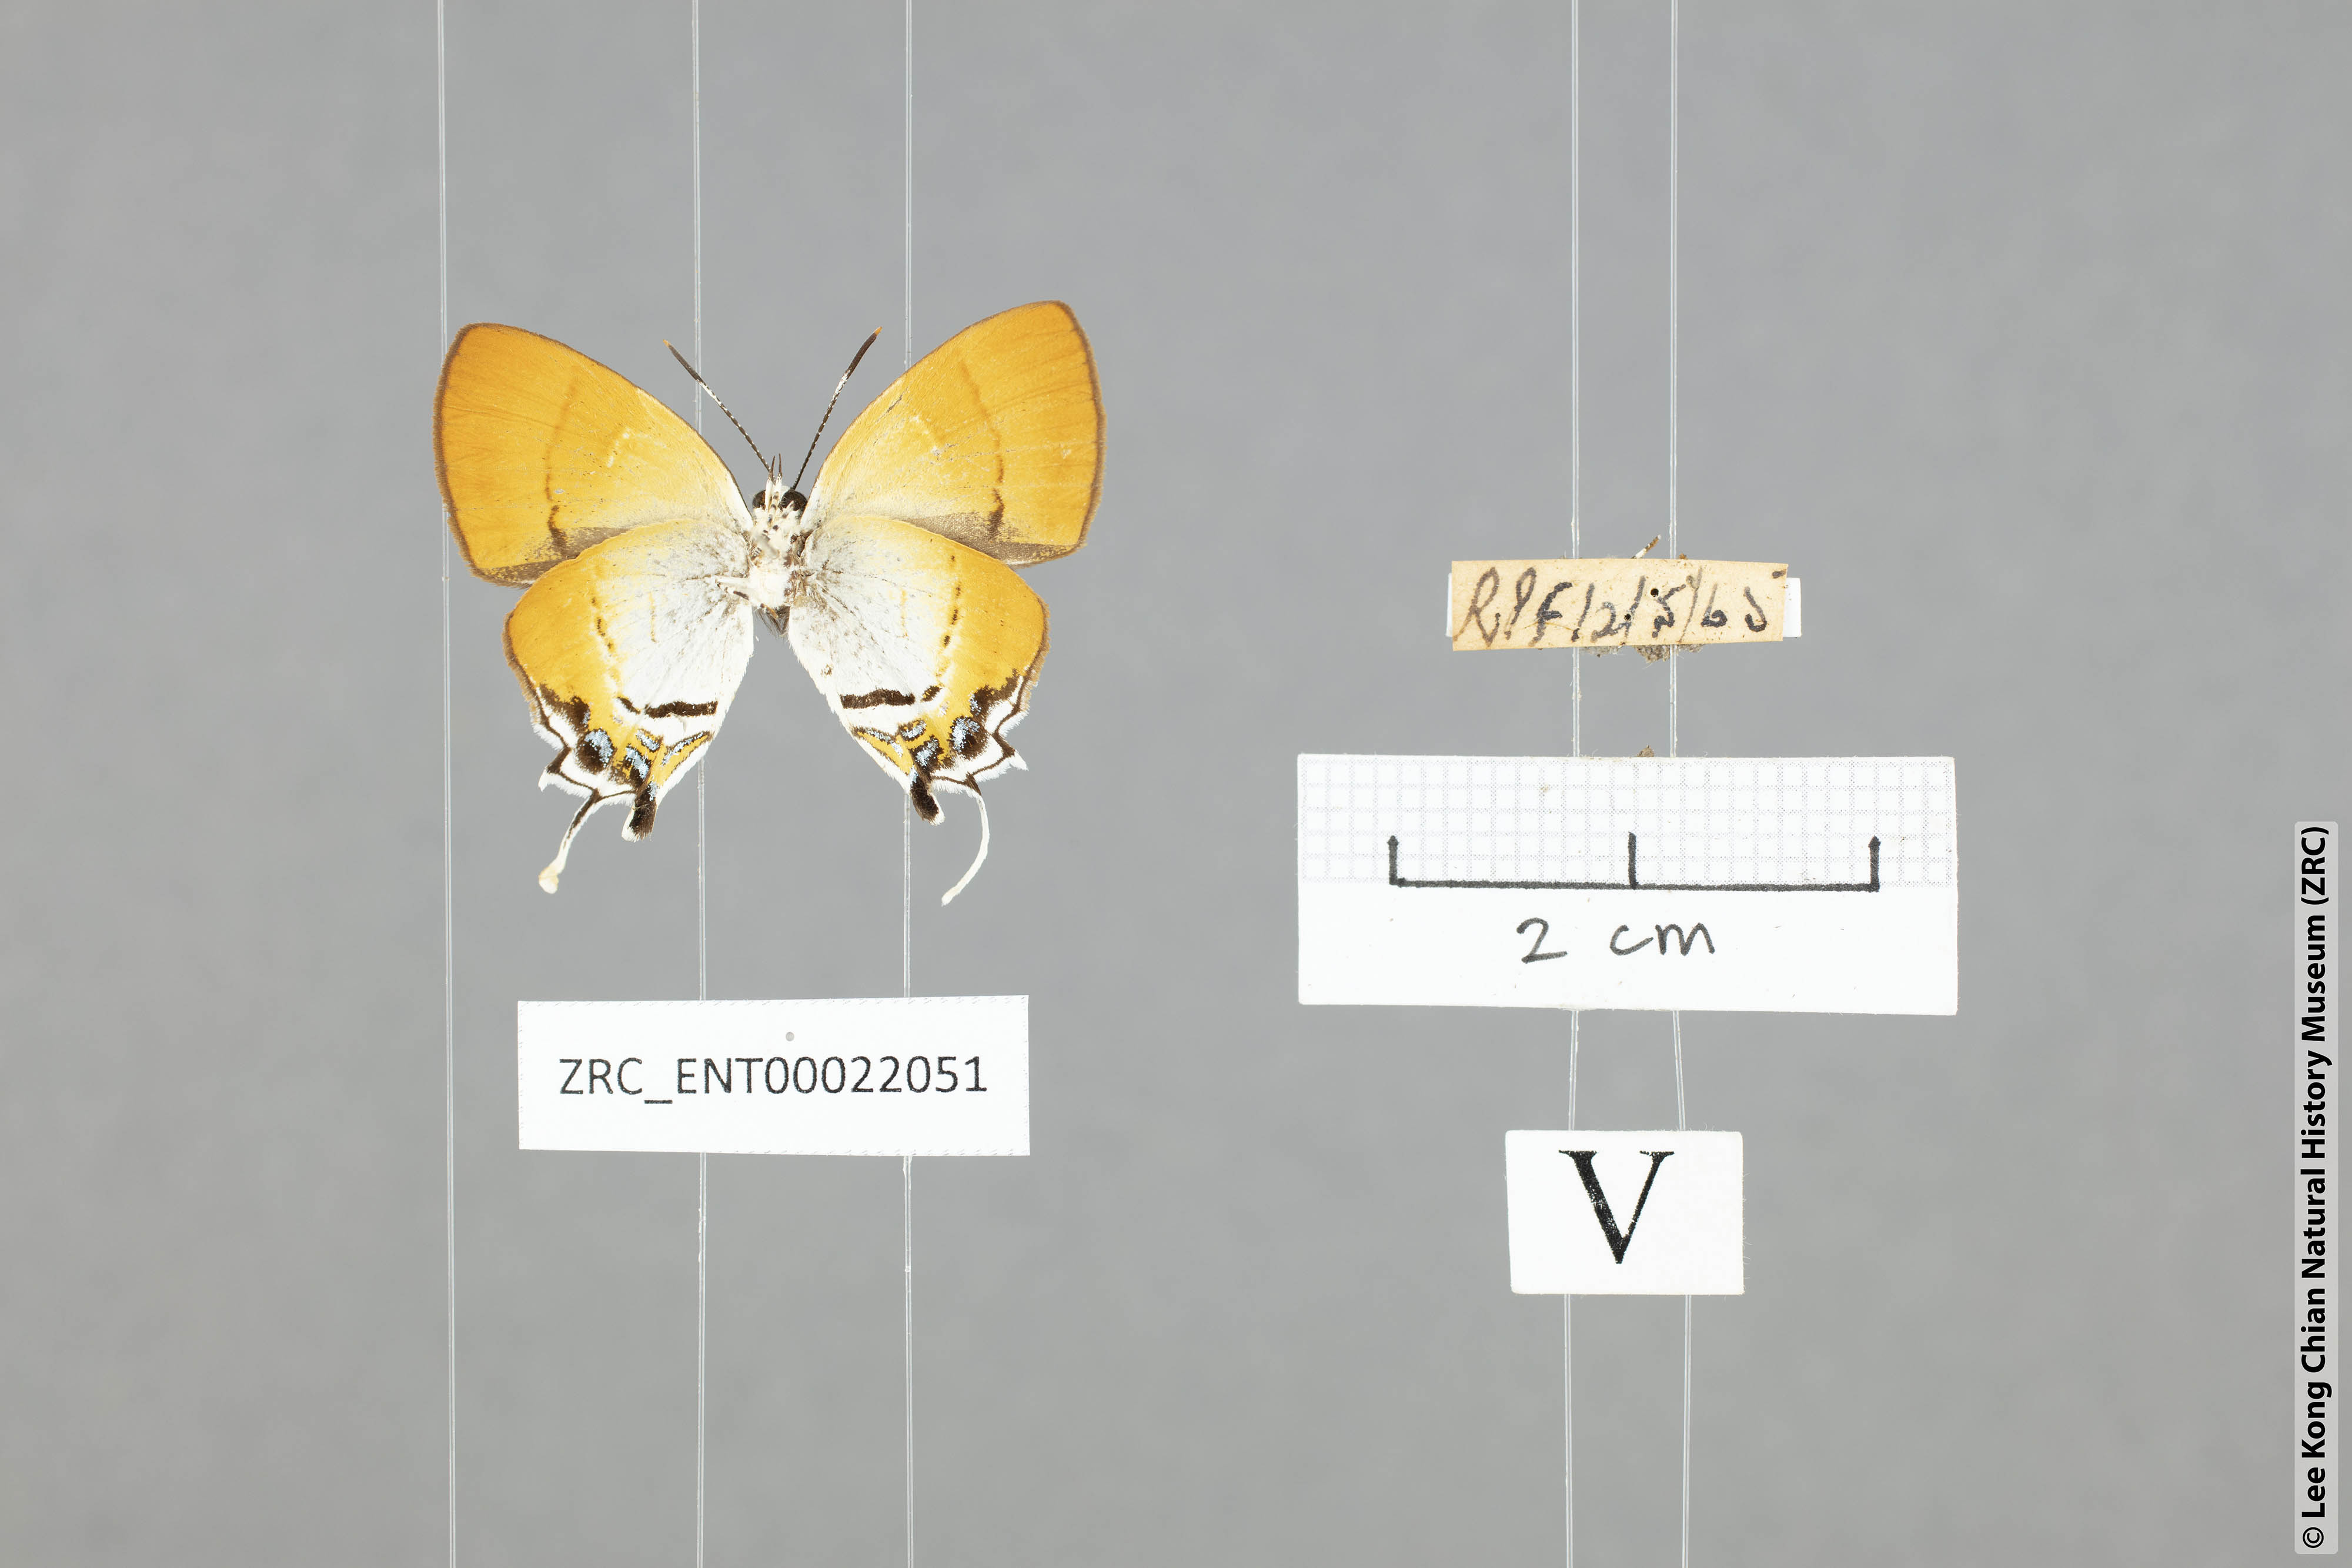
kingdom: Animalia
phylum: Arthropoda
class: Insecta
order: Lepidoptera
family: Lycaenidae
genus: Sithon
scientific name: Sithon nedymond
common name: Plush
